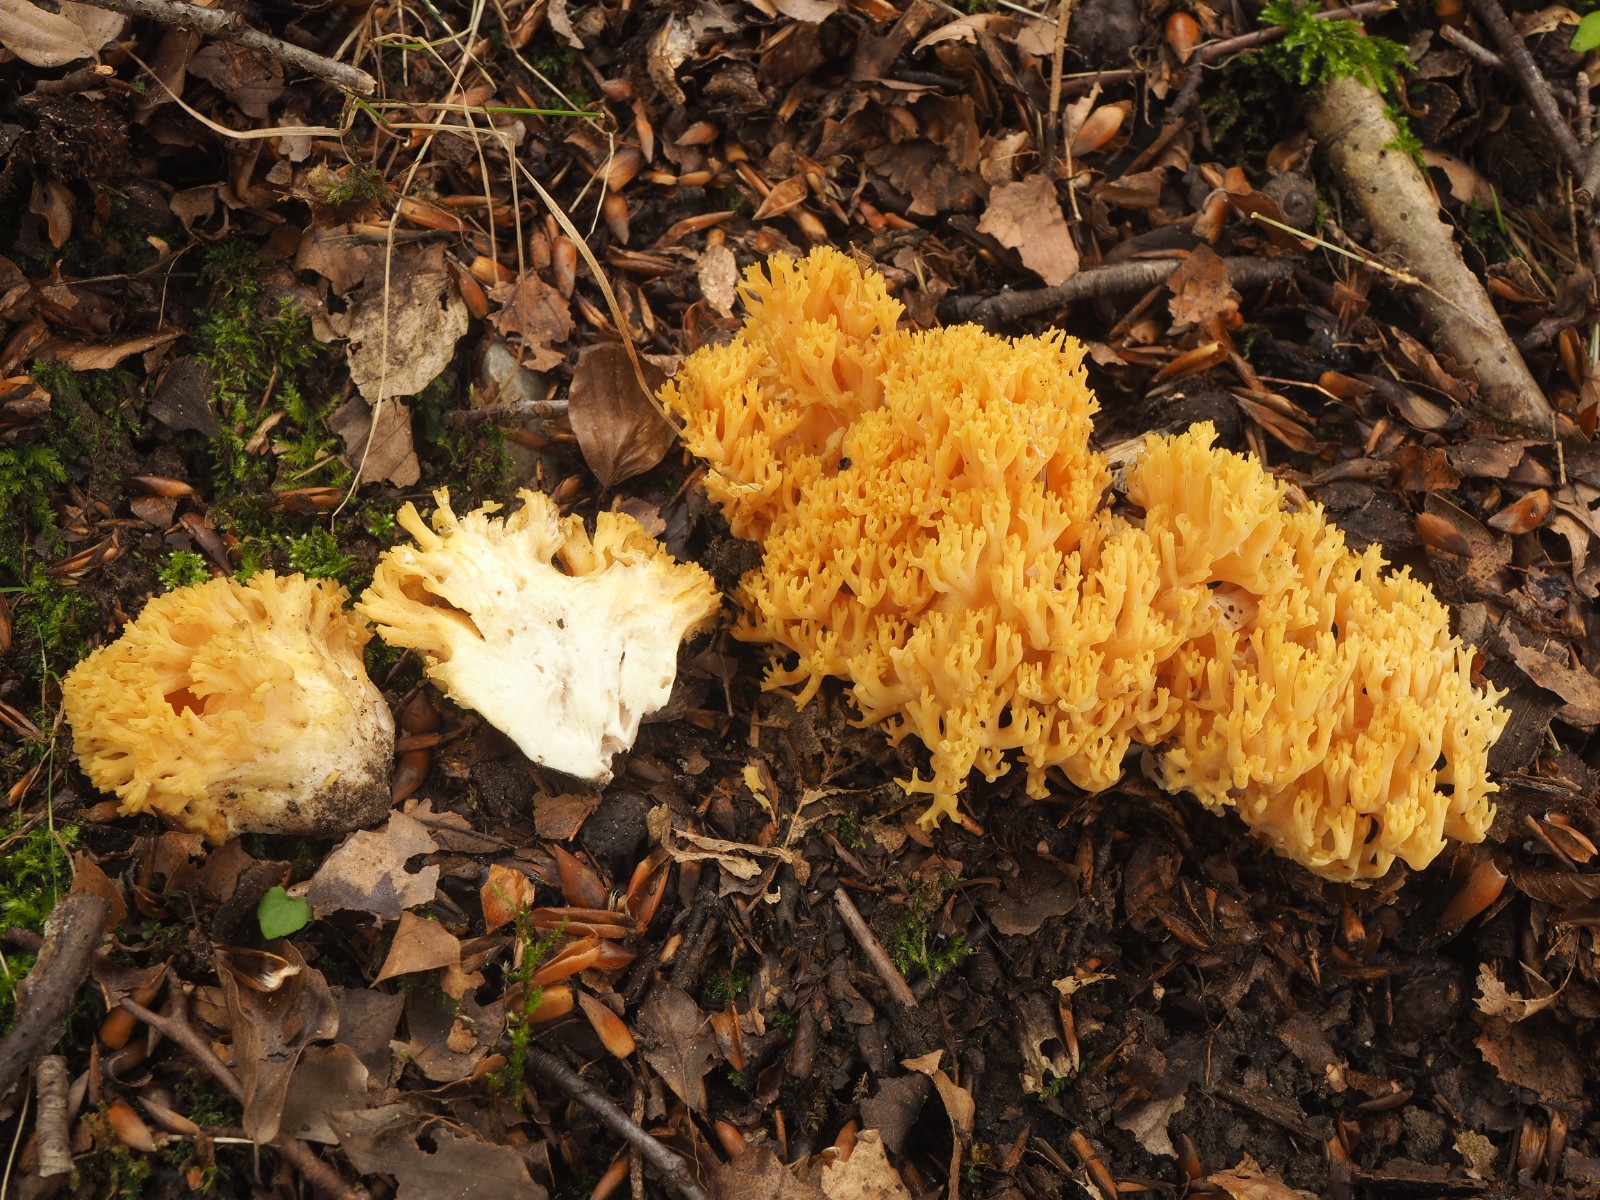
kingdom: Fungi
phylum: Basidiomycota
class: Agaricomycetes
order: Gomphales
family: Gomphaceae
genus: Ramaria
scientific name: Ramaria krieglsteineri
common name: smalsporet koralsvamp
